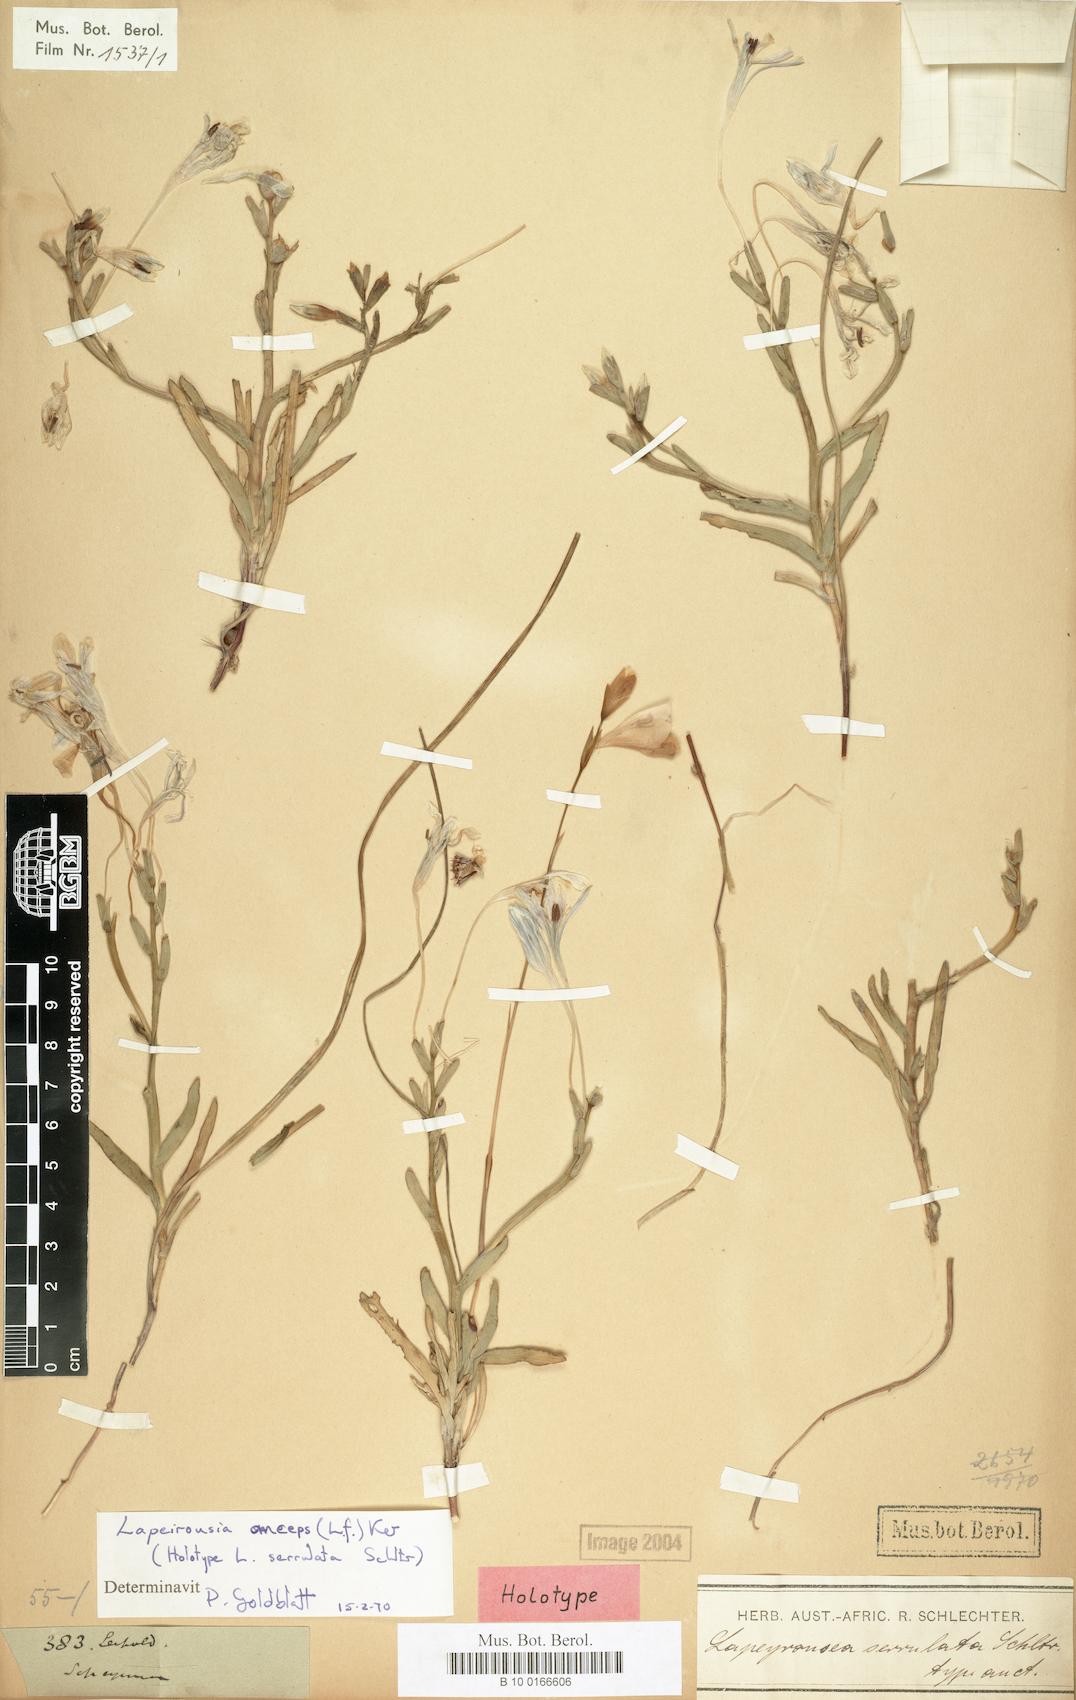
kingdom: Plantae
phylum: Tracheophyta
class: Liliopsida
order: Asparagales
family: Iridaceae
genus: Lapeirousia
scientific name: Lapeirousia anceps
